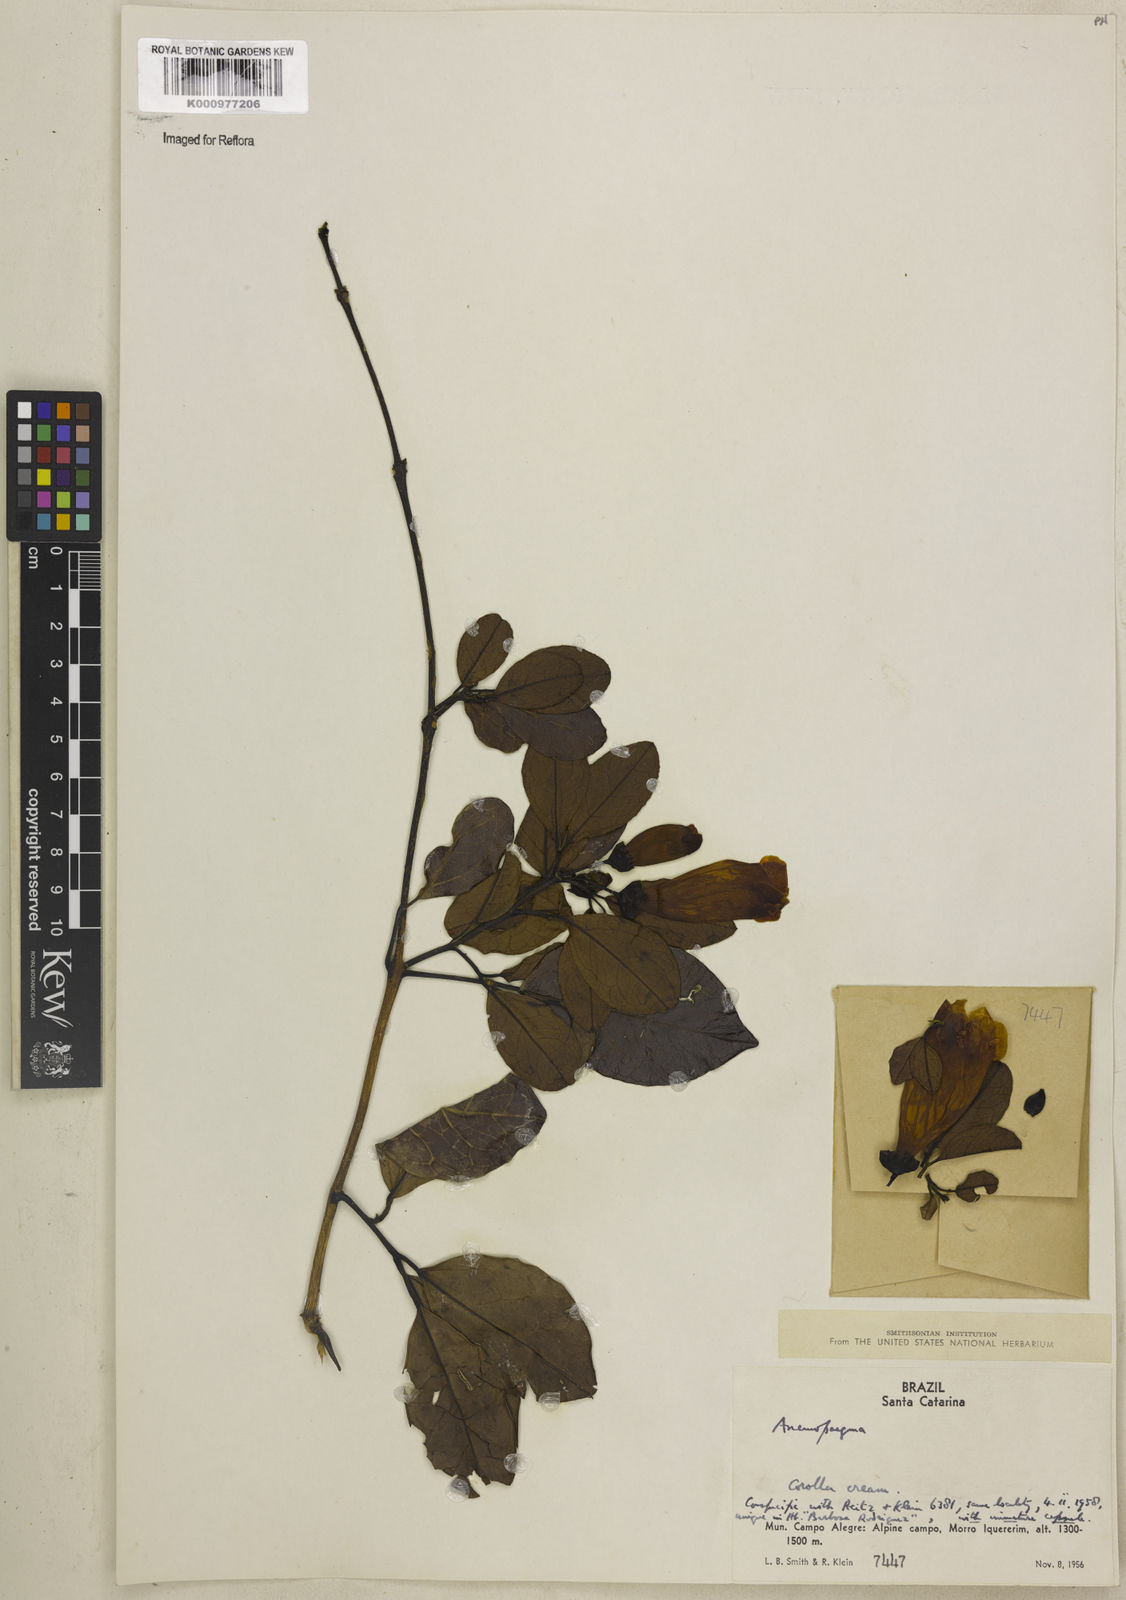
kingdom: Plantae
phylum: Tracheophyta
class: Magnoliopsida
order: Lamiales
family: Bignoniaceae
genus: Anemopaegma
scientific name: Anemopaegma nebulosum
